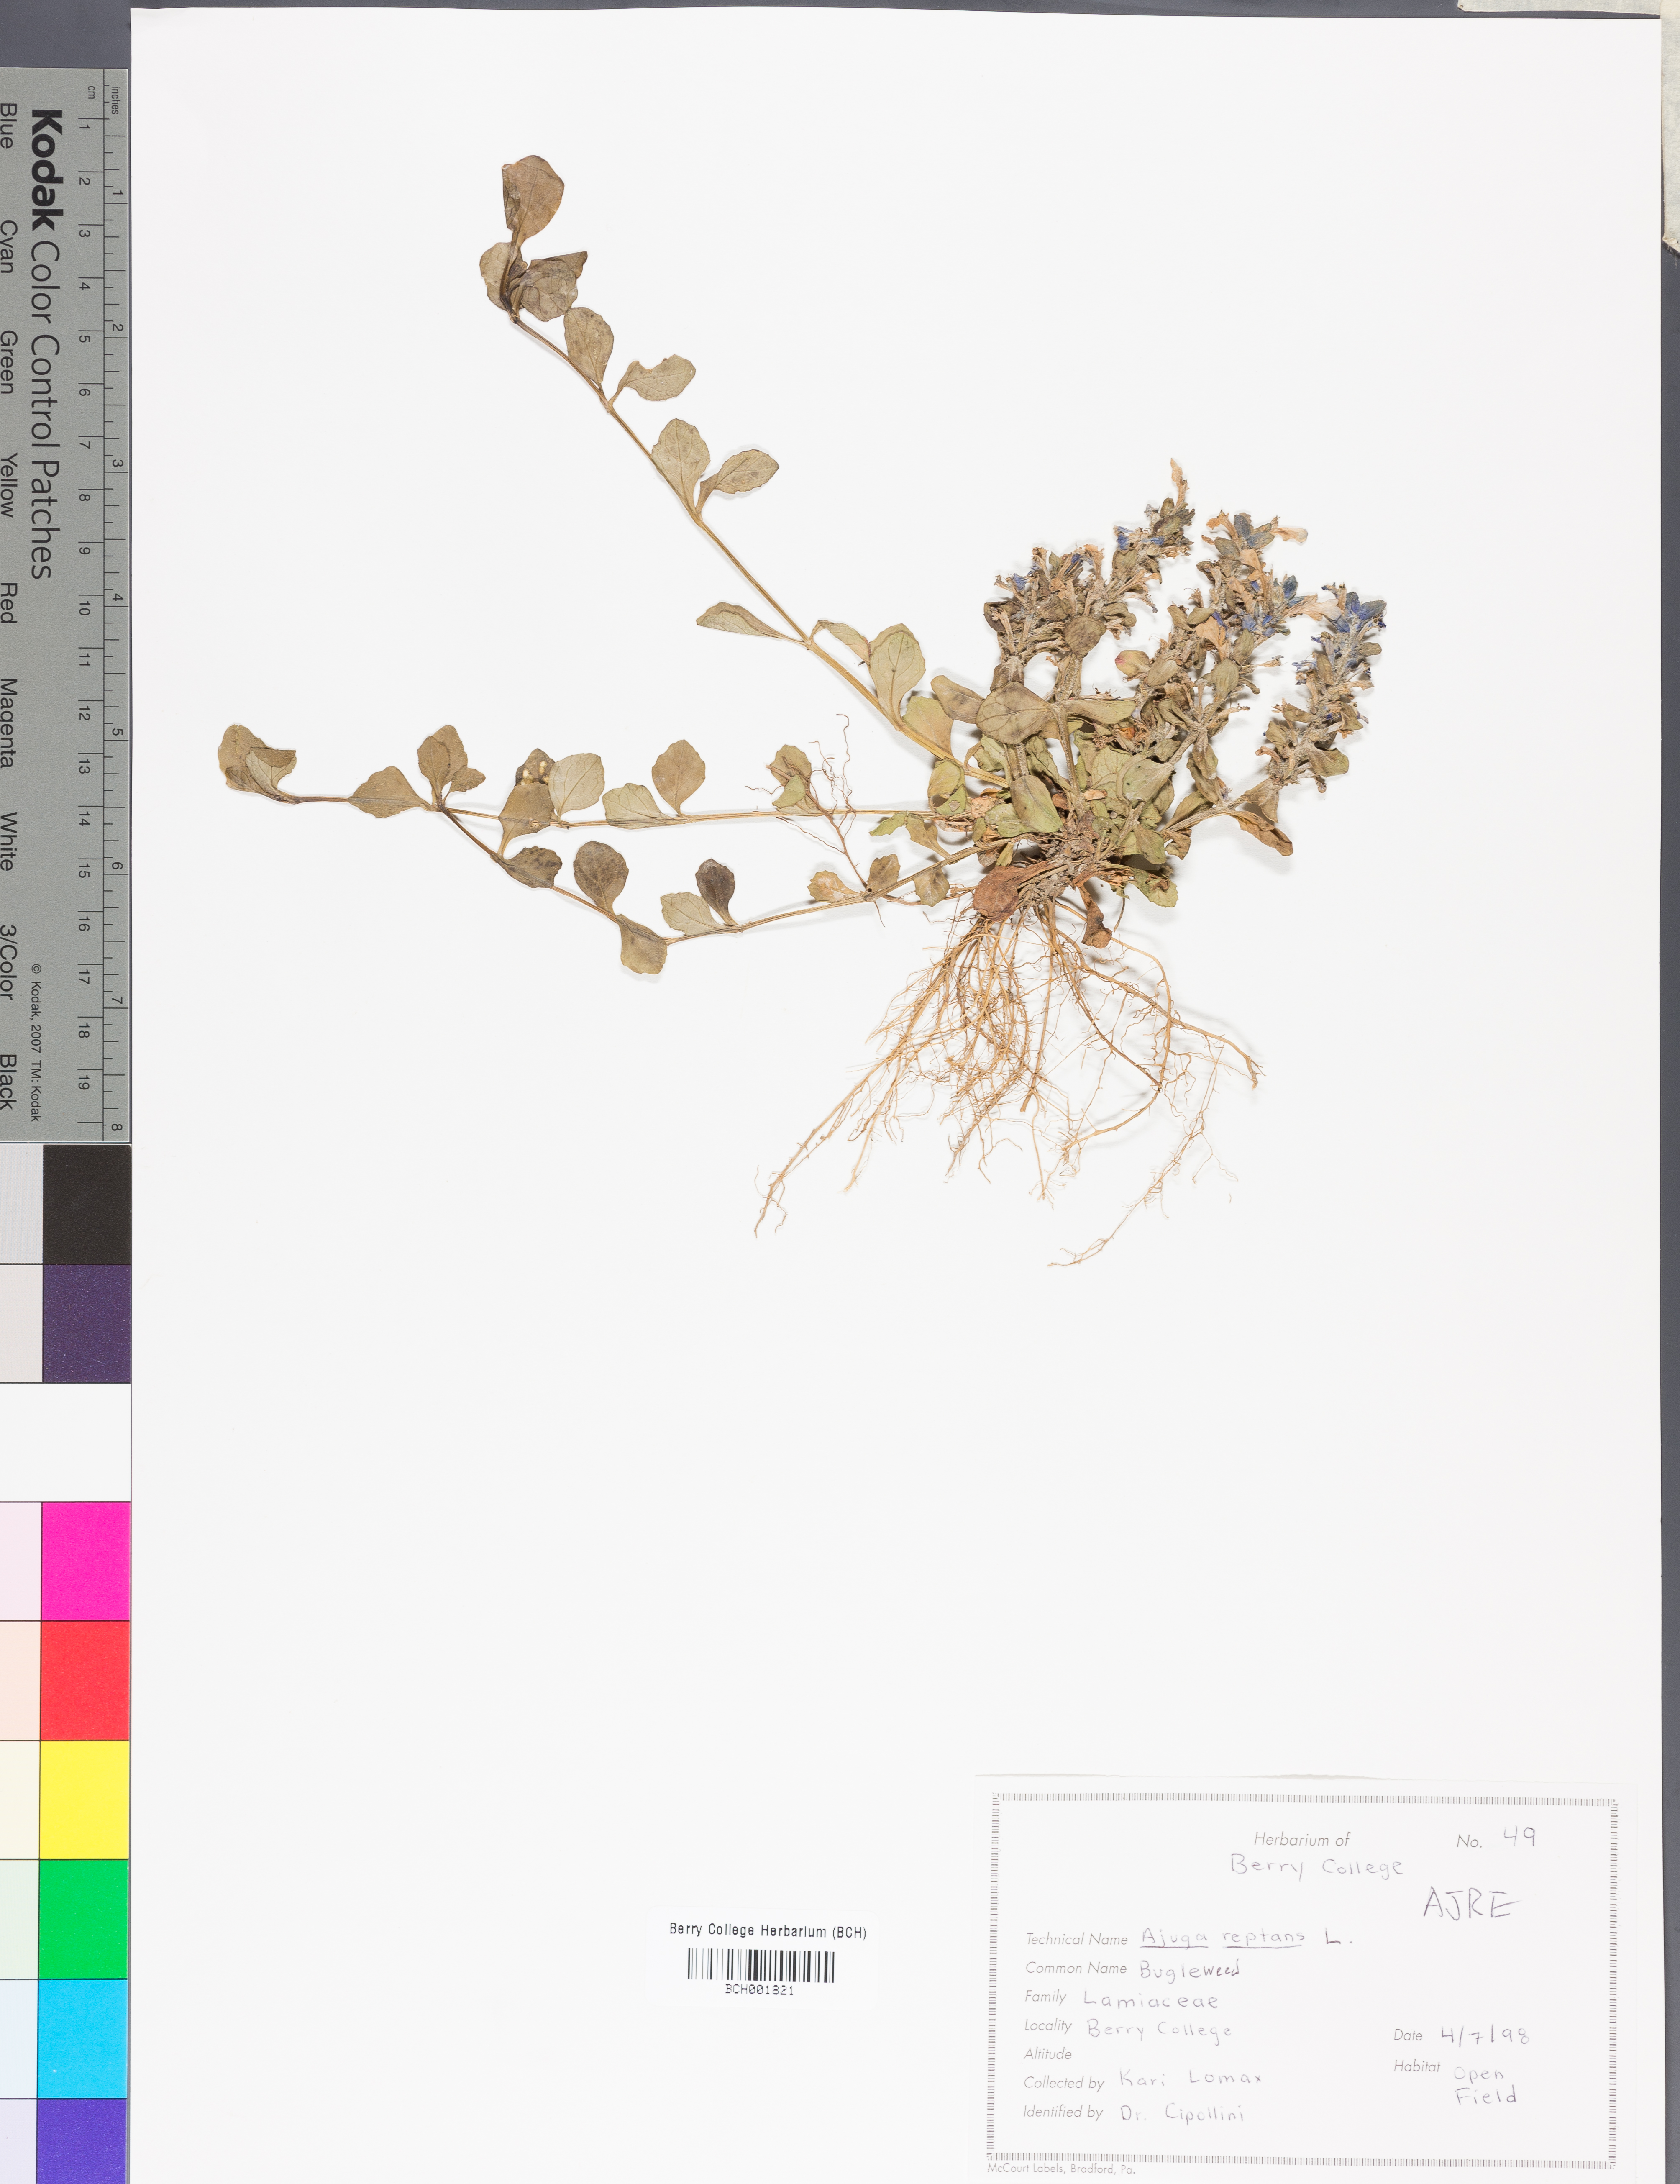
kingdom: Plantae
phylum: Tracheophyta
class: Magnoliopsida
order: Lamiales
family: Lamiaceae
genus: Ajuga
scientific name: Ajuga reptans
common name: Bugle
